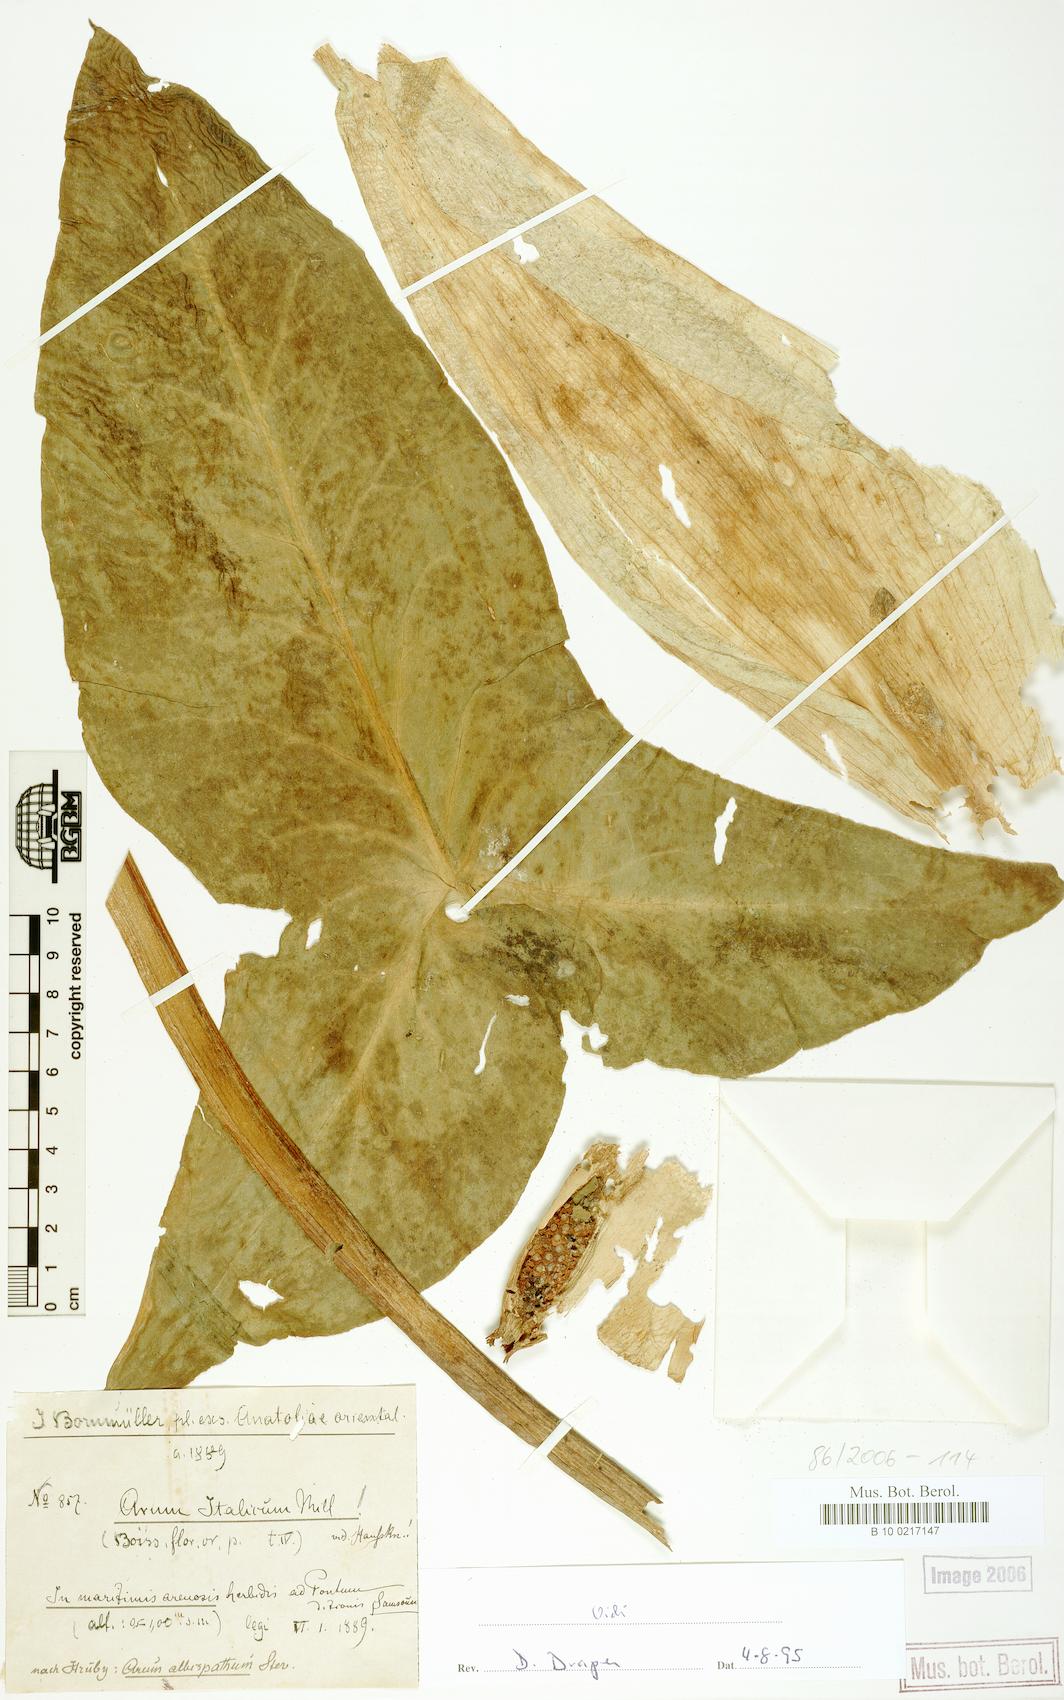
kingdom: Plantae
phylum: Tracheophyta
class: Liliopsida
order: Alismatales
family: Araceae
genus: Arum
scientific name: Arum italicum
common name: Italian lords-and-ladies
